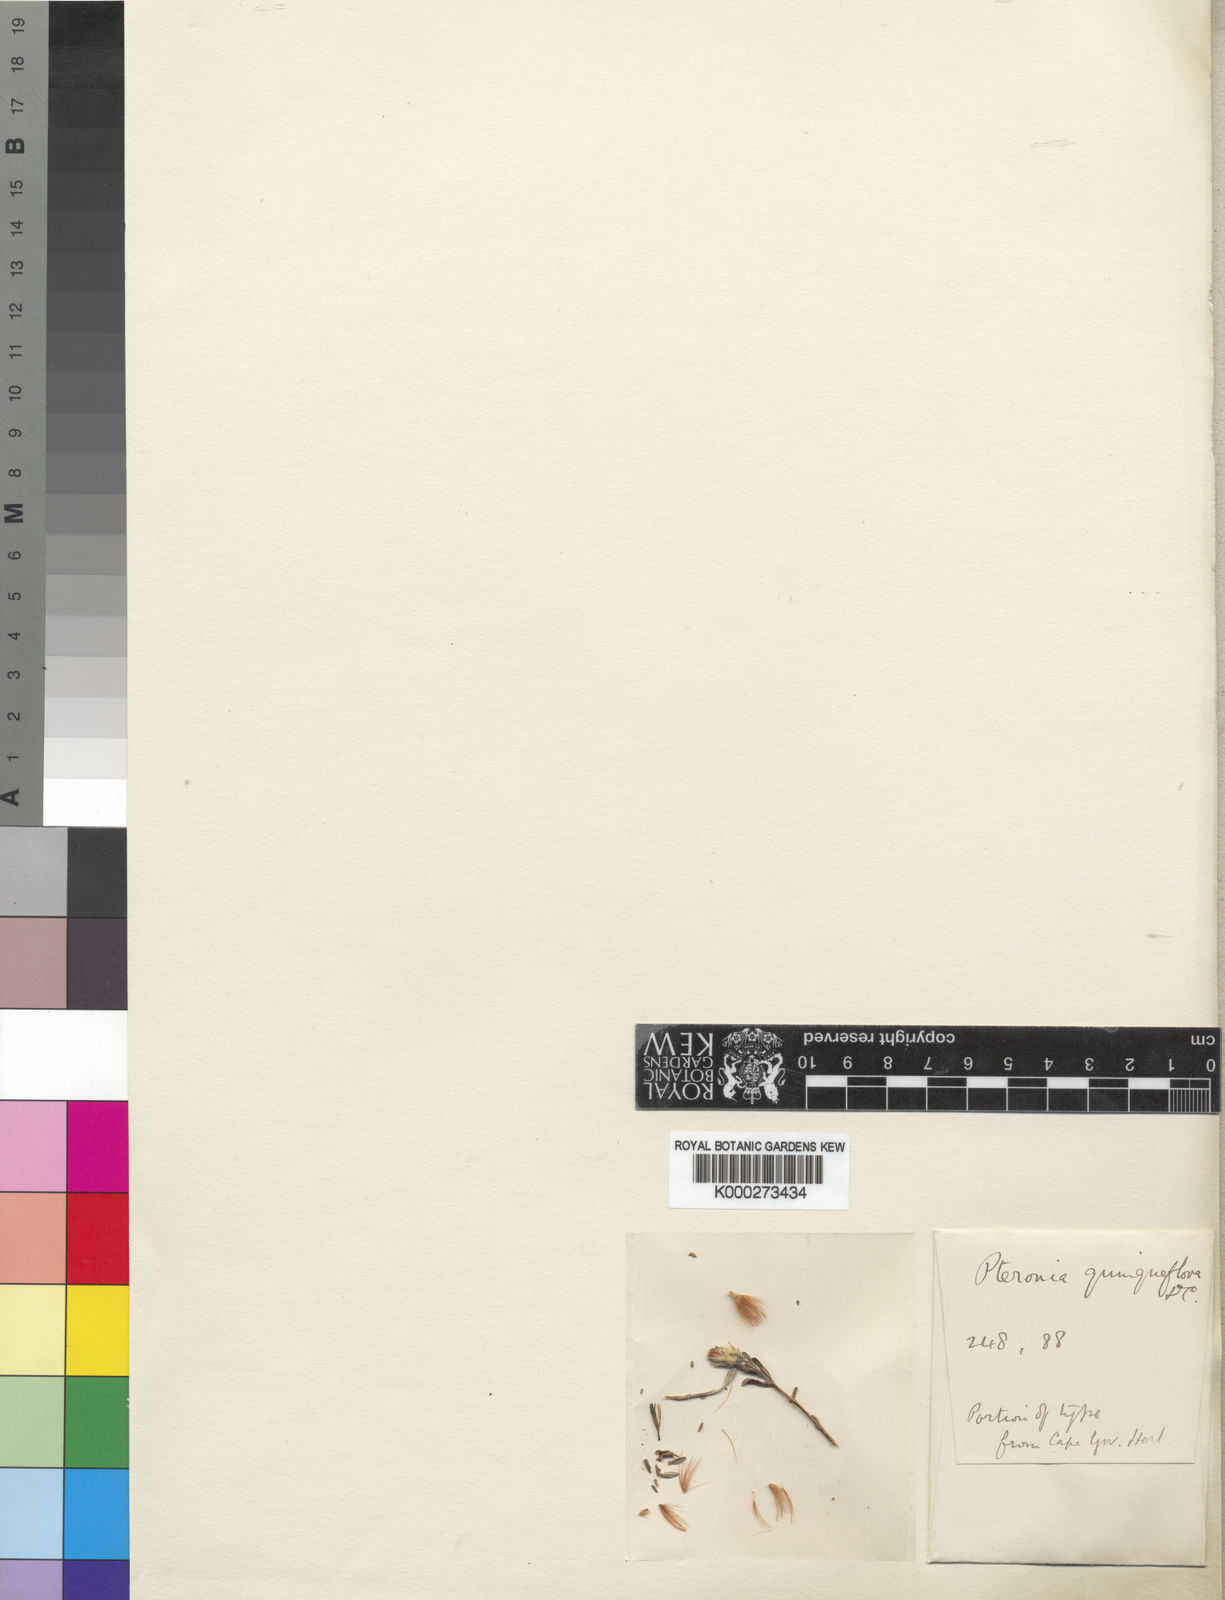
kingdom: Plantae
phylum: Tracheophyta
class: Magnoliopsida
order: Asterales
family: Asteraceae
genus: Pteronia
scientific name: Pteronia quinqueflora
